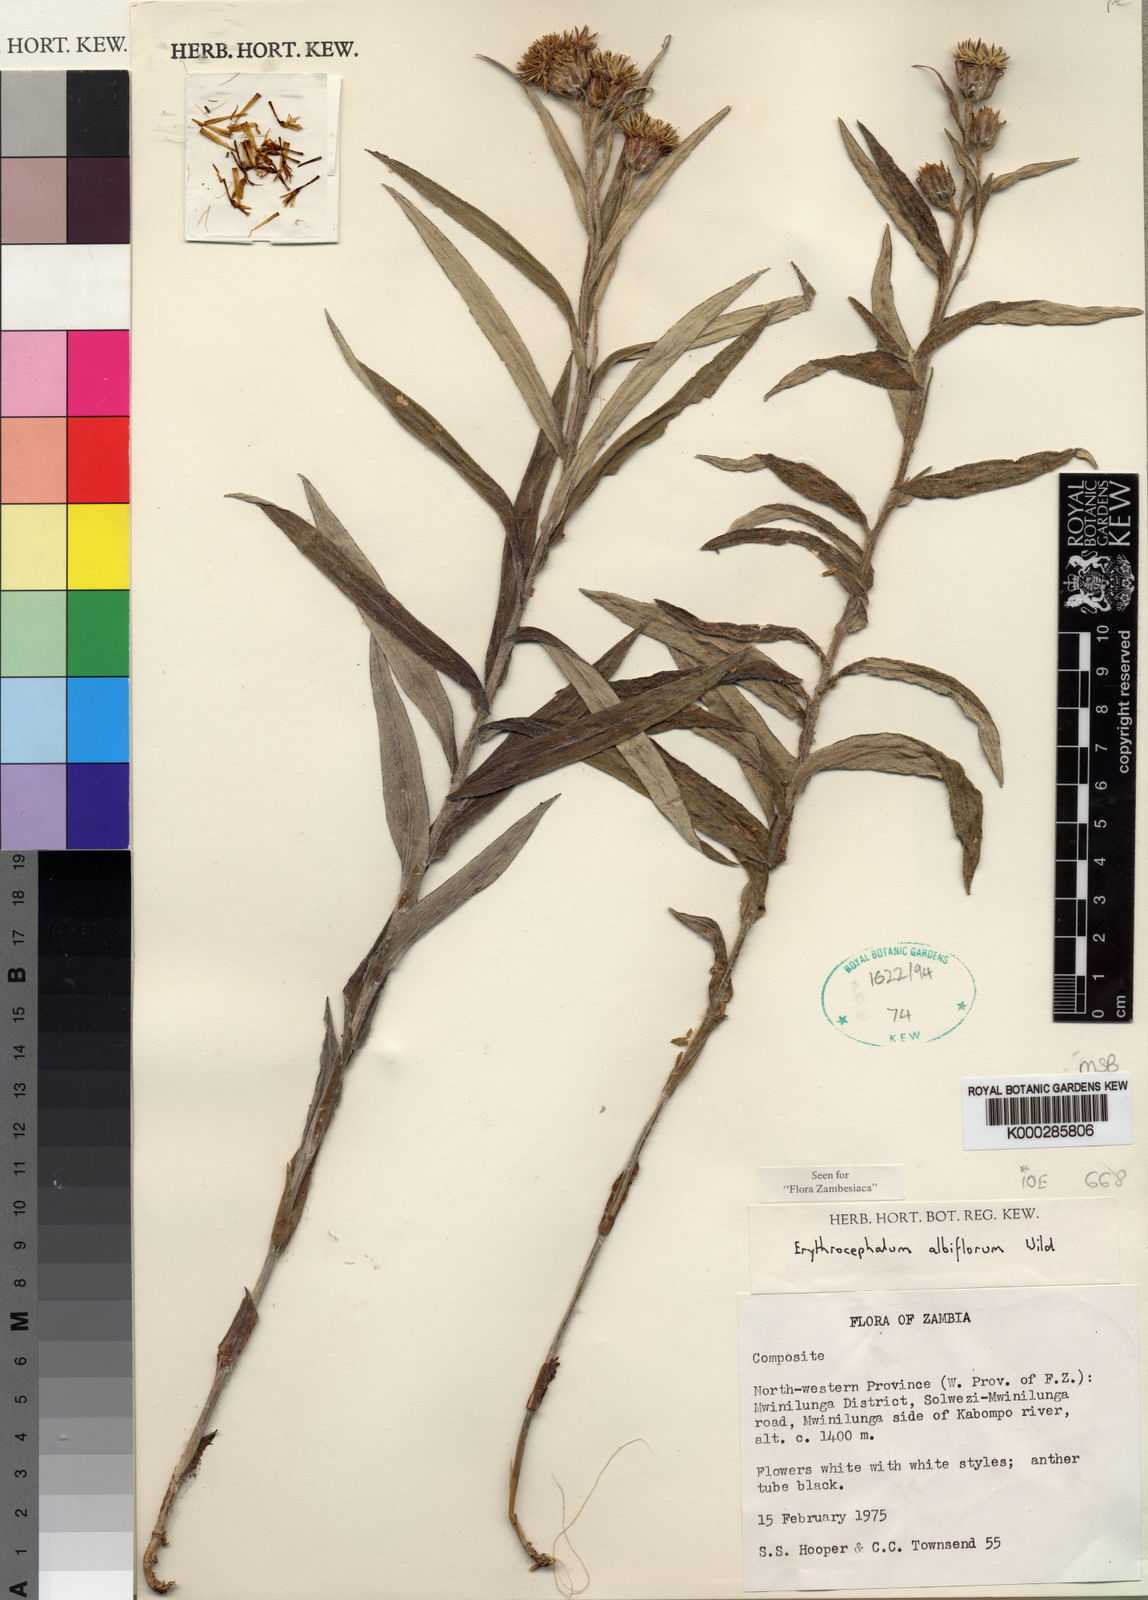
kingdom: Plantae
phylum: Tracheophyta
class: Magnoliopsida
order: Asterales
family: Asteraceae
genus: Erythrocephalum
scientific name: Erythrocephalum albiflorum
